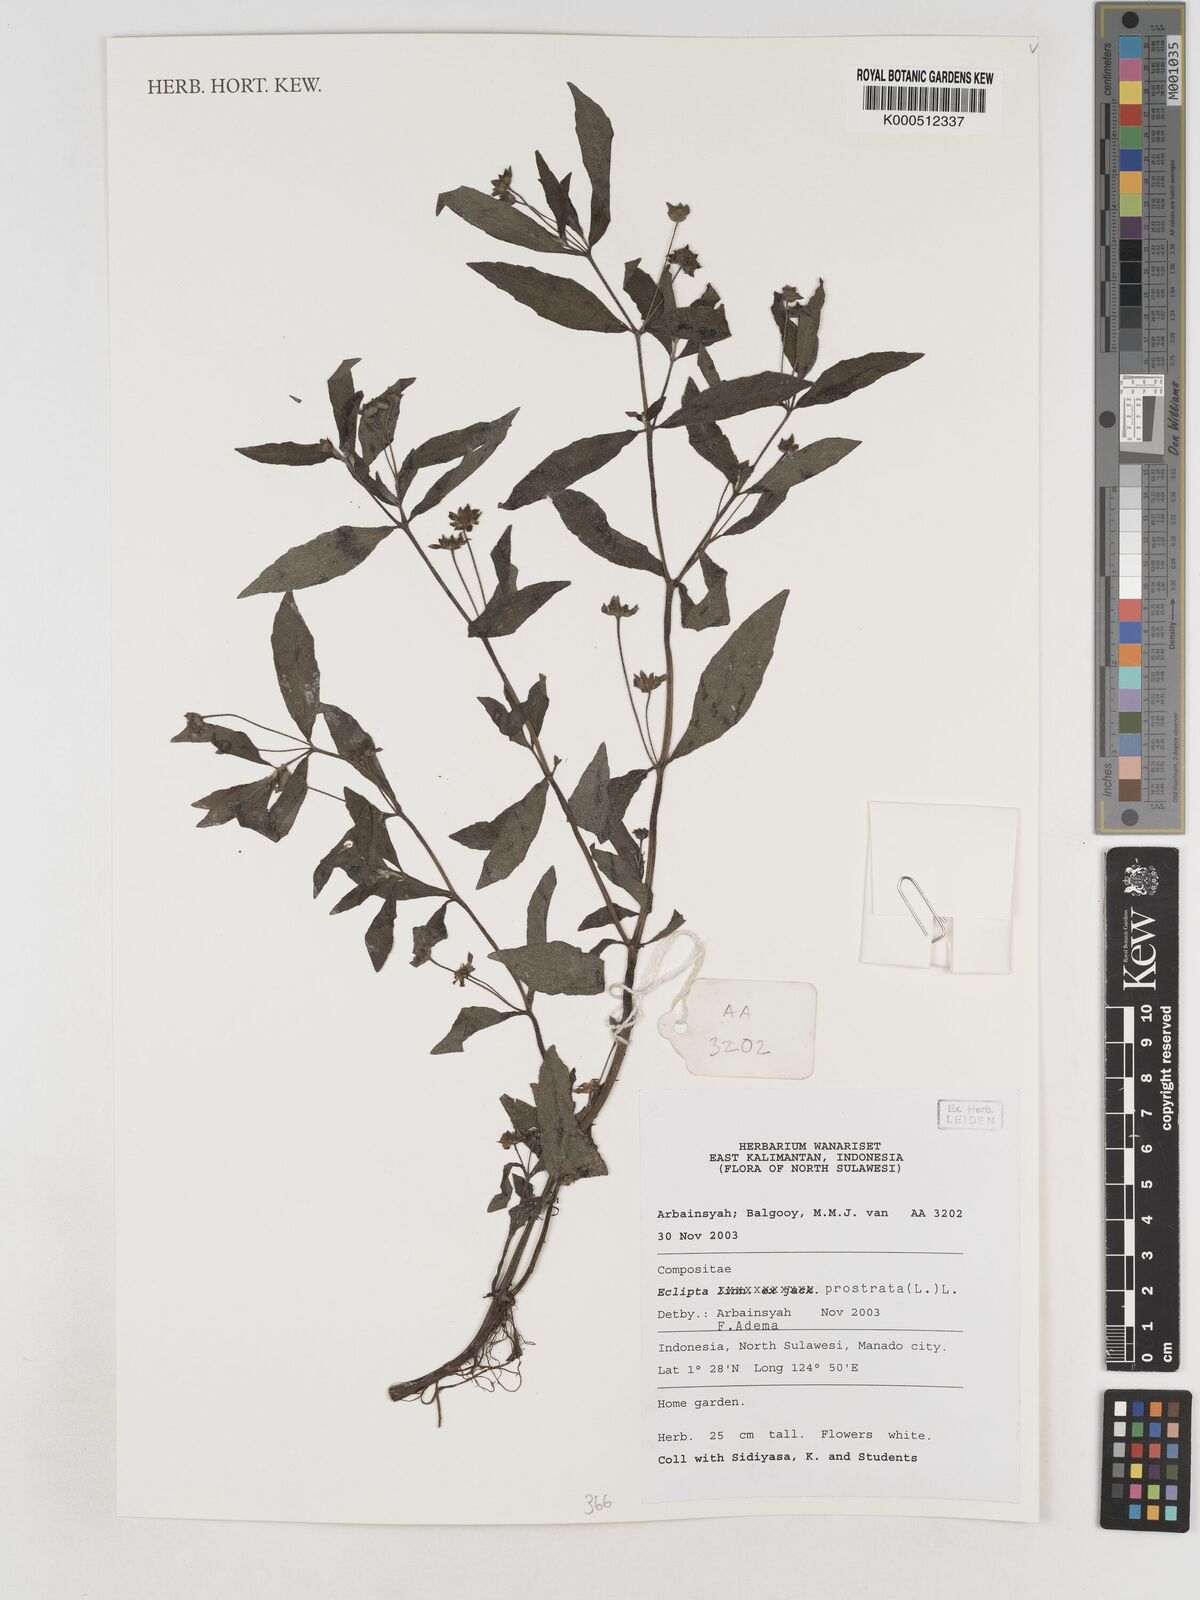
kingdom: Plantae
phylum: Tracheophyta
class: Magnoliopsida
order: Asterales
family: Asteraceae
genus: Eclipta
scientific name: Eclipta prostrata
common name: False daisy
